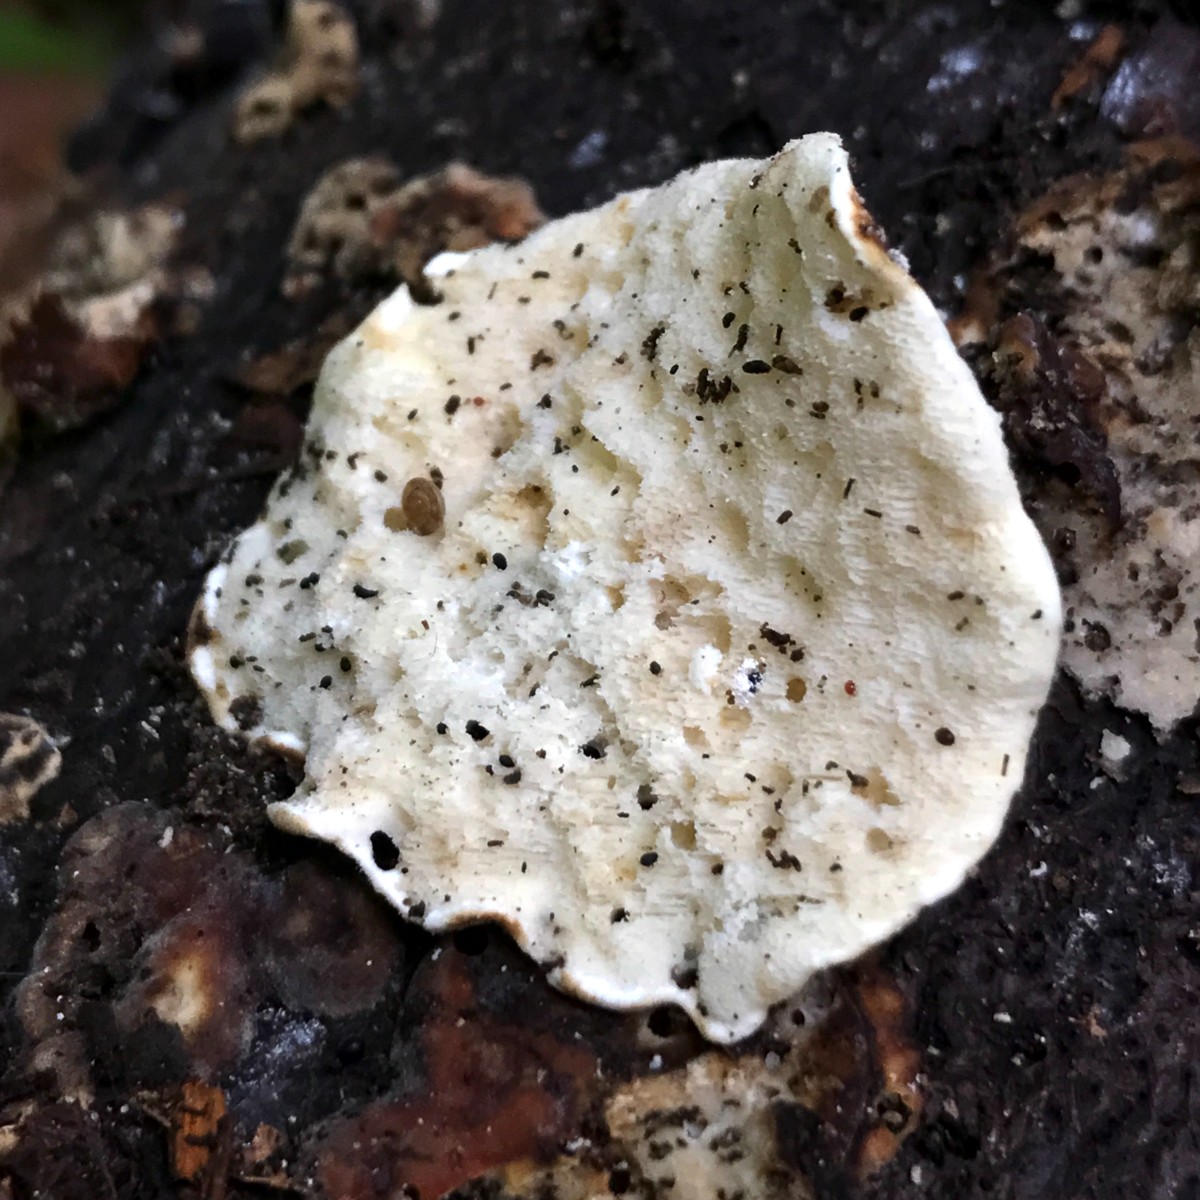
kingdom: Fungi
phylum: Basidiomycota
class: Agaricomycetes
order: Polyporales
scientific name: Polyporales
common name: poresvampordenen
